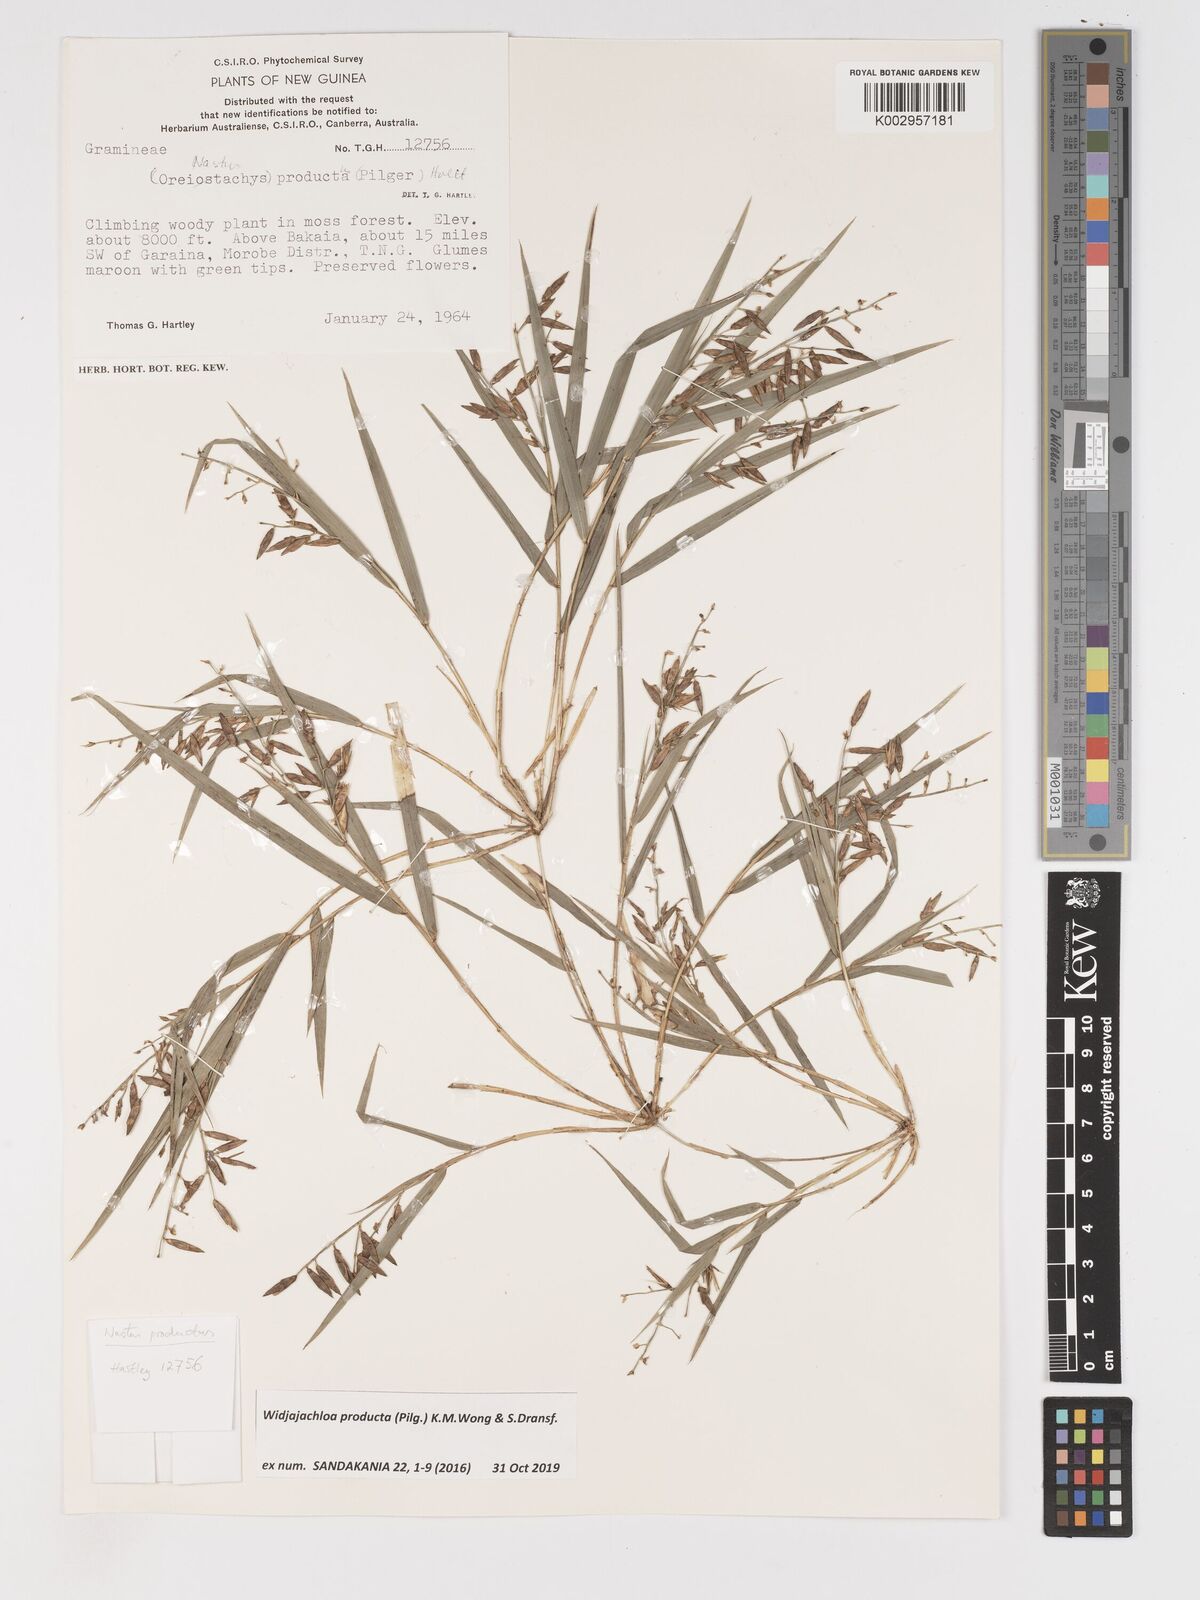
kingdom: Plantae
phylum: Tracheophyta
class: Liliopsida
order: Poales
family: Poaceae
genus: Widjajachloa
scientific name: Widjajachloa producta
